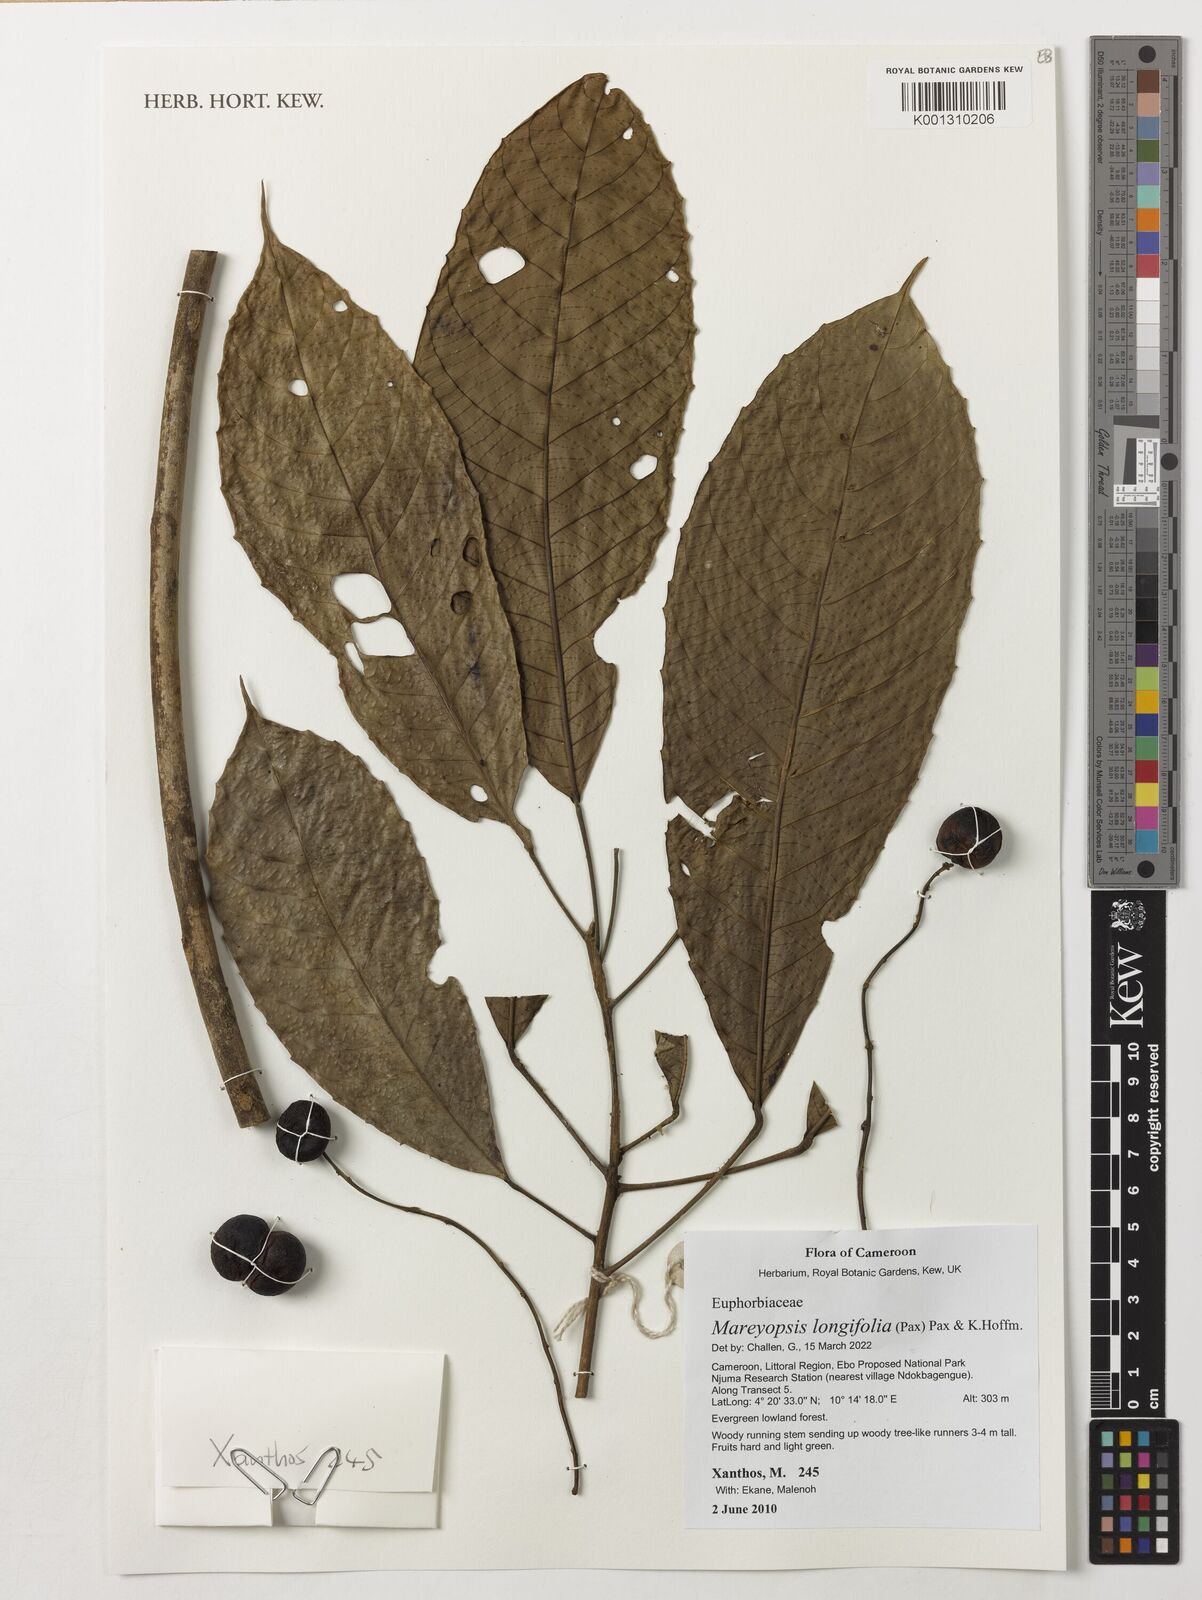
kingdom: Plantae
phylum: Tracheophyta
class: Magnoliopsida
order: Malpighiales
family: Euphorbiaceae
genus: Mareyopsis
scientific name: Mareyopsis longifolia
